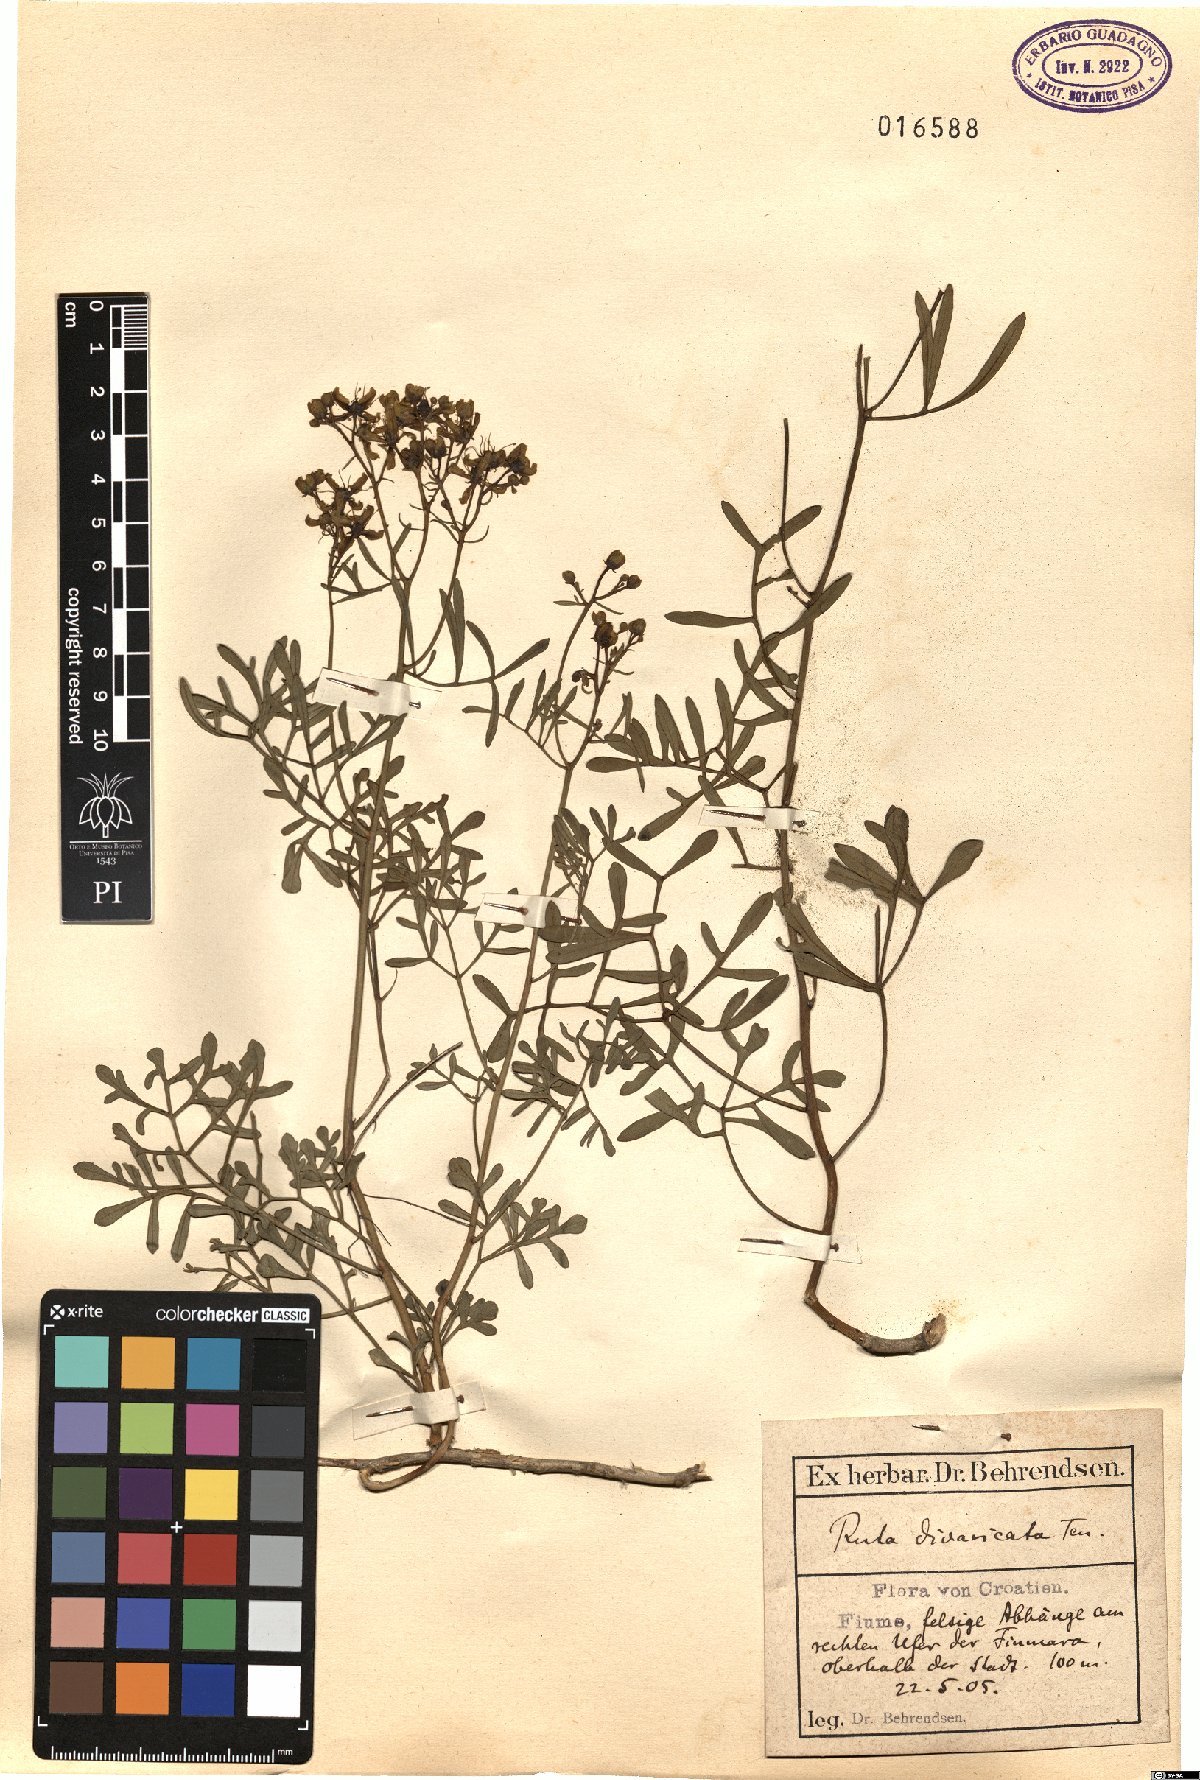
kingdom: Plantae
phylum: Tracheophyta
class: Magnoliopsida
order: Sapindales
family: Rutaceae
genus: Ruta
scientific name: Ruta graveolens
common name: Common rue
